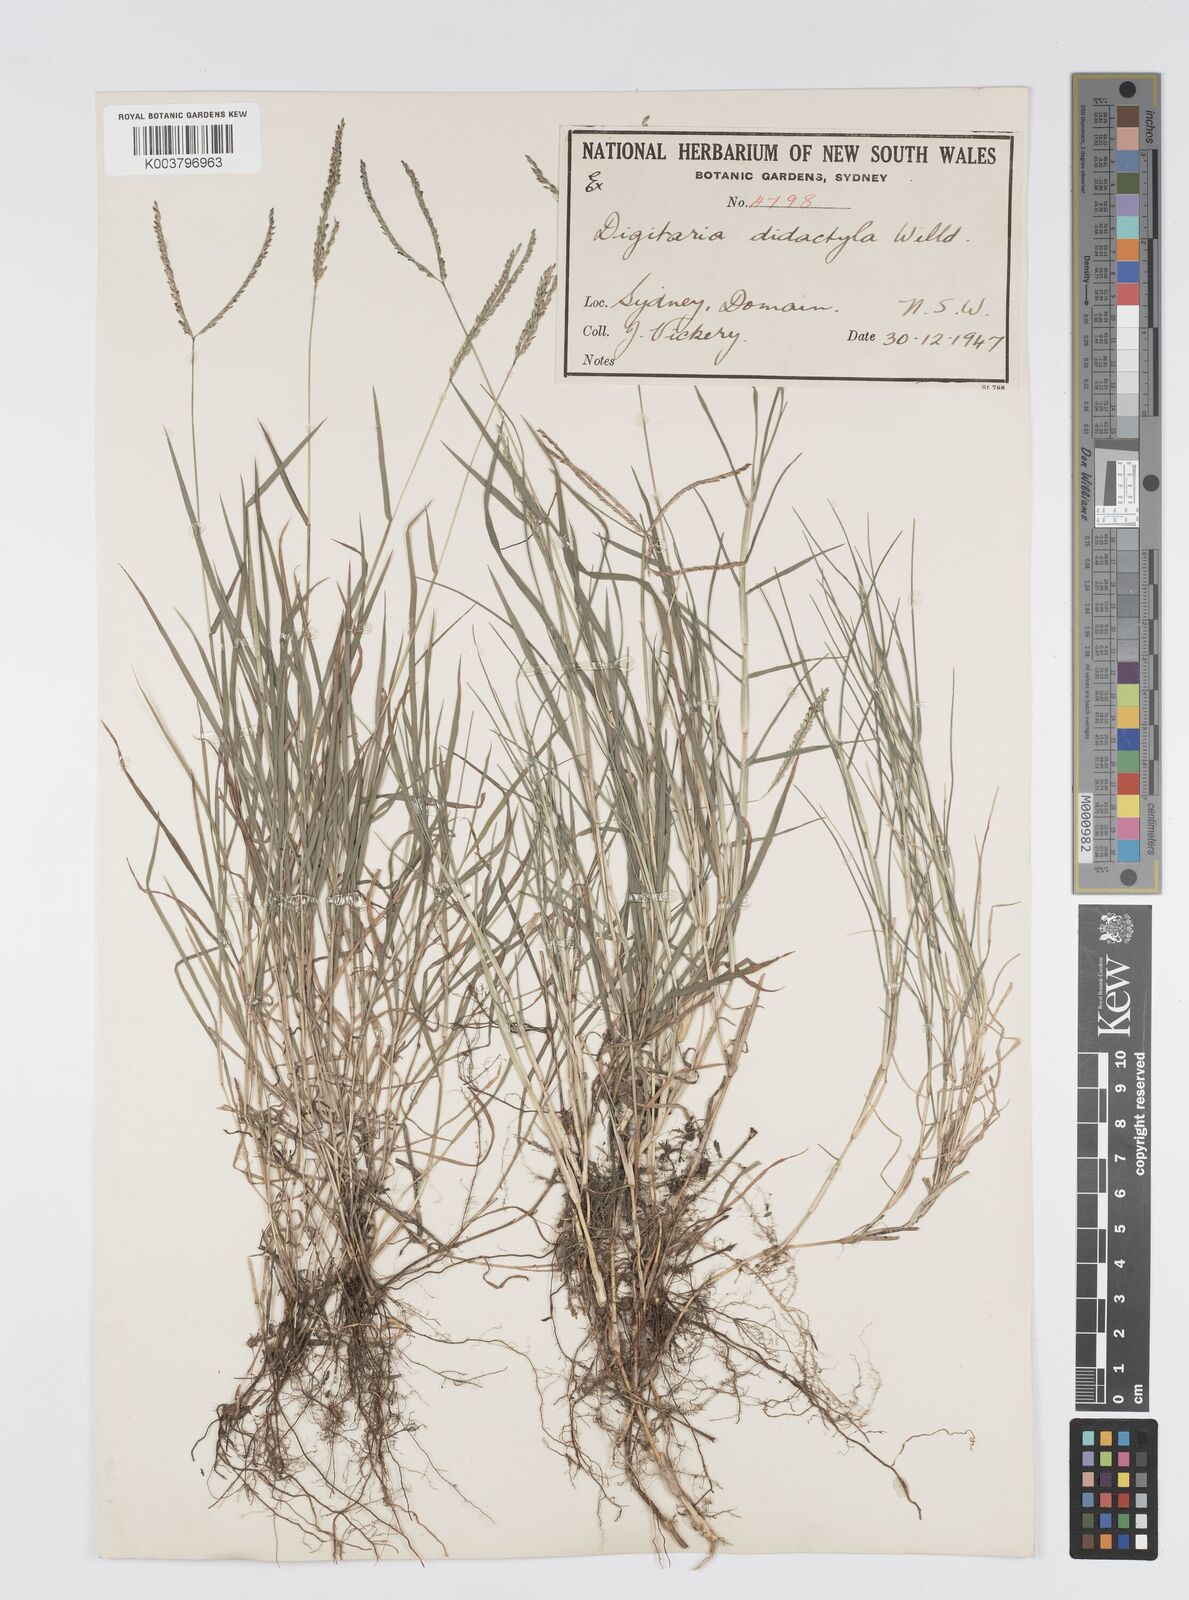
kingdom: Plantae
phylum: Tracheophyta
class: Liliopsida
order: Poales
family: Poaceae
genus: Digitaria
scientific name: Digitaria didactyla
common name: Blue couch
